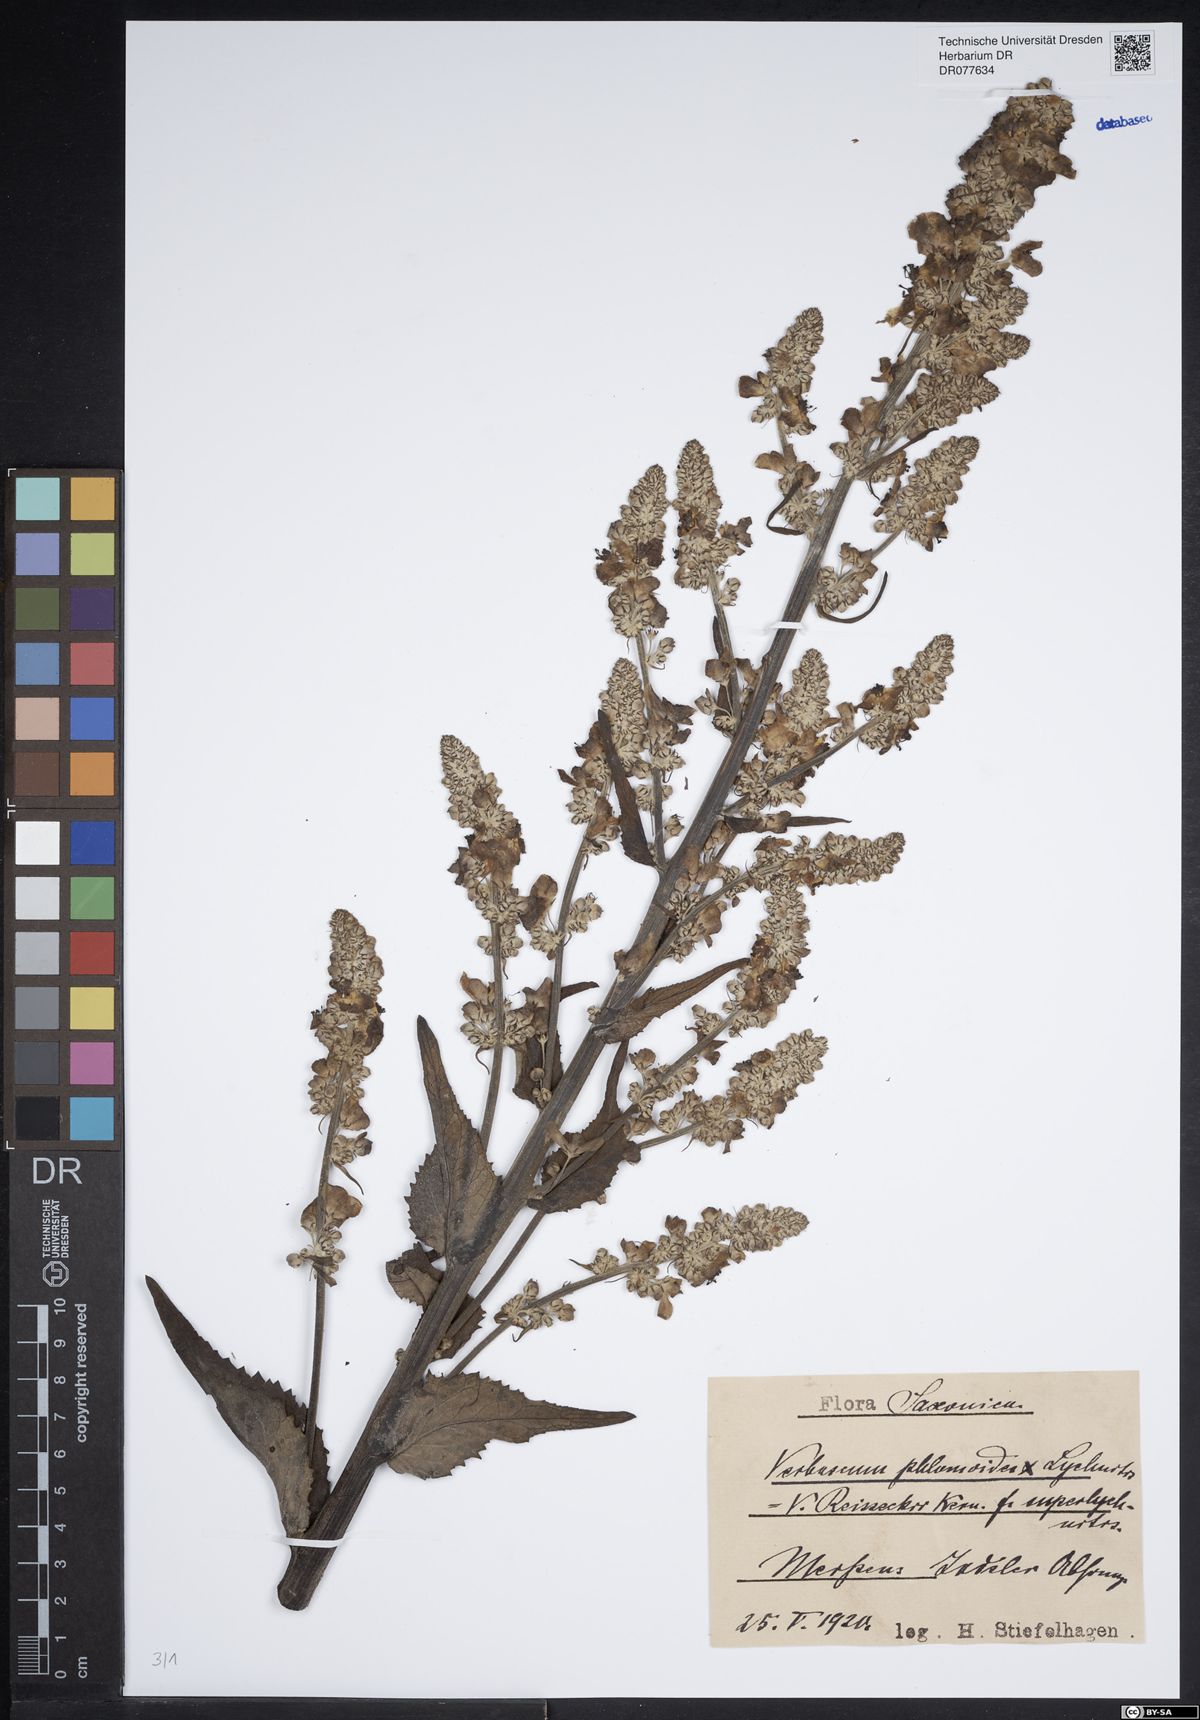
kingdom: Plantae
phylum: Tracheophyta
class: Magnoliopsida
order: Lamiales
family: Scrophulariaceae
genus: Verbascum
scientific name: Verbascum denudatum
